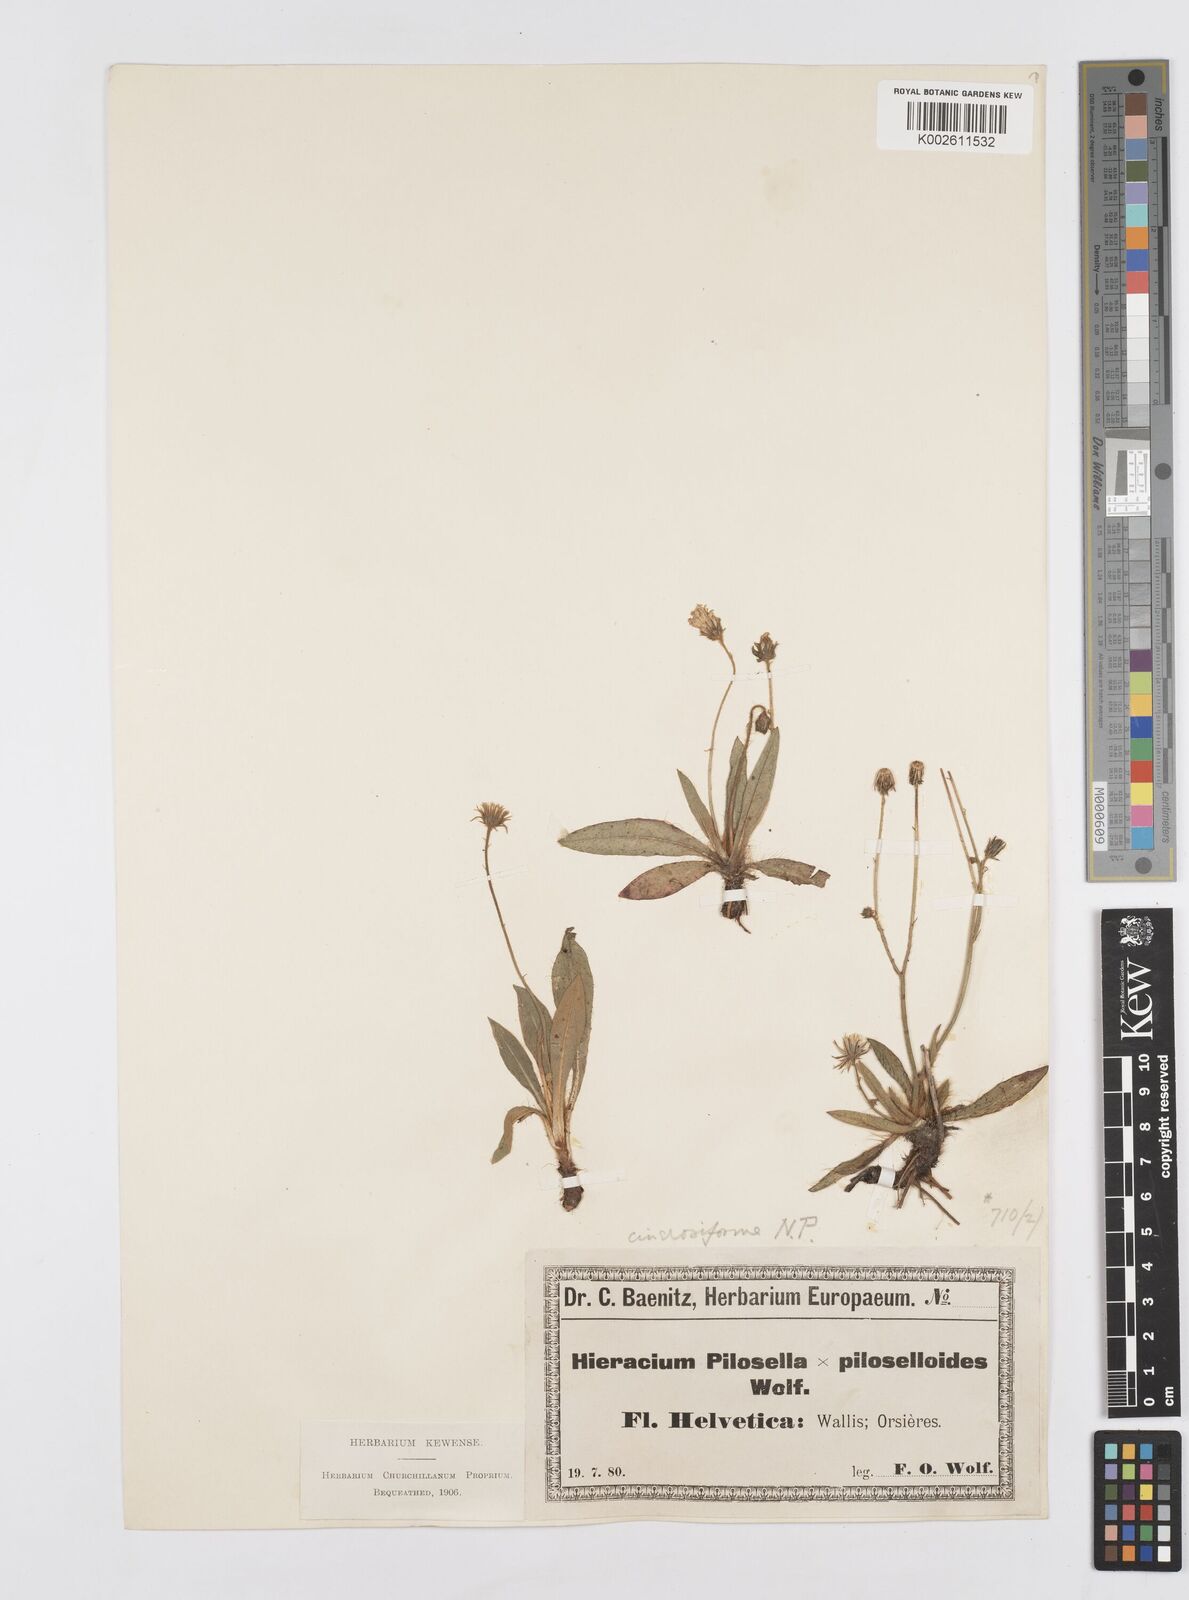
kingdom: Plantae
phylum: Tracheophyta
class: Magnoliopsida
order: Asterales
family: Asteraceae
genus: Pilosella
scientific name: Pilosella cinerosiformis
